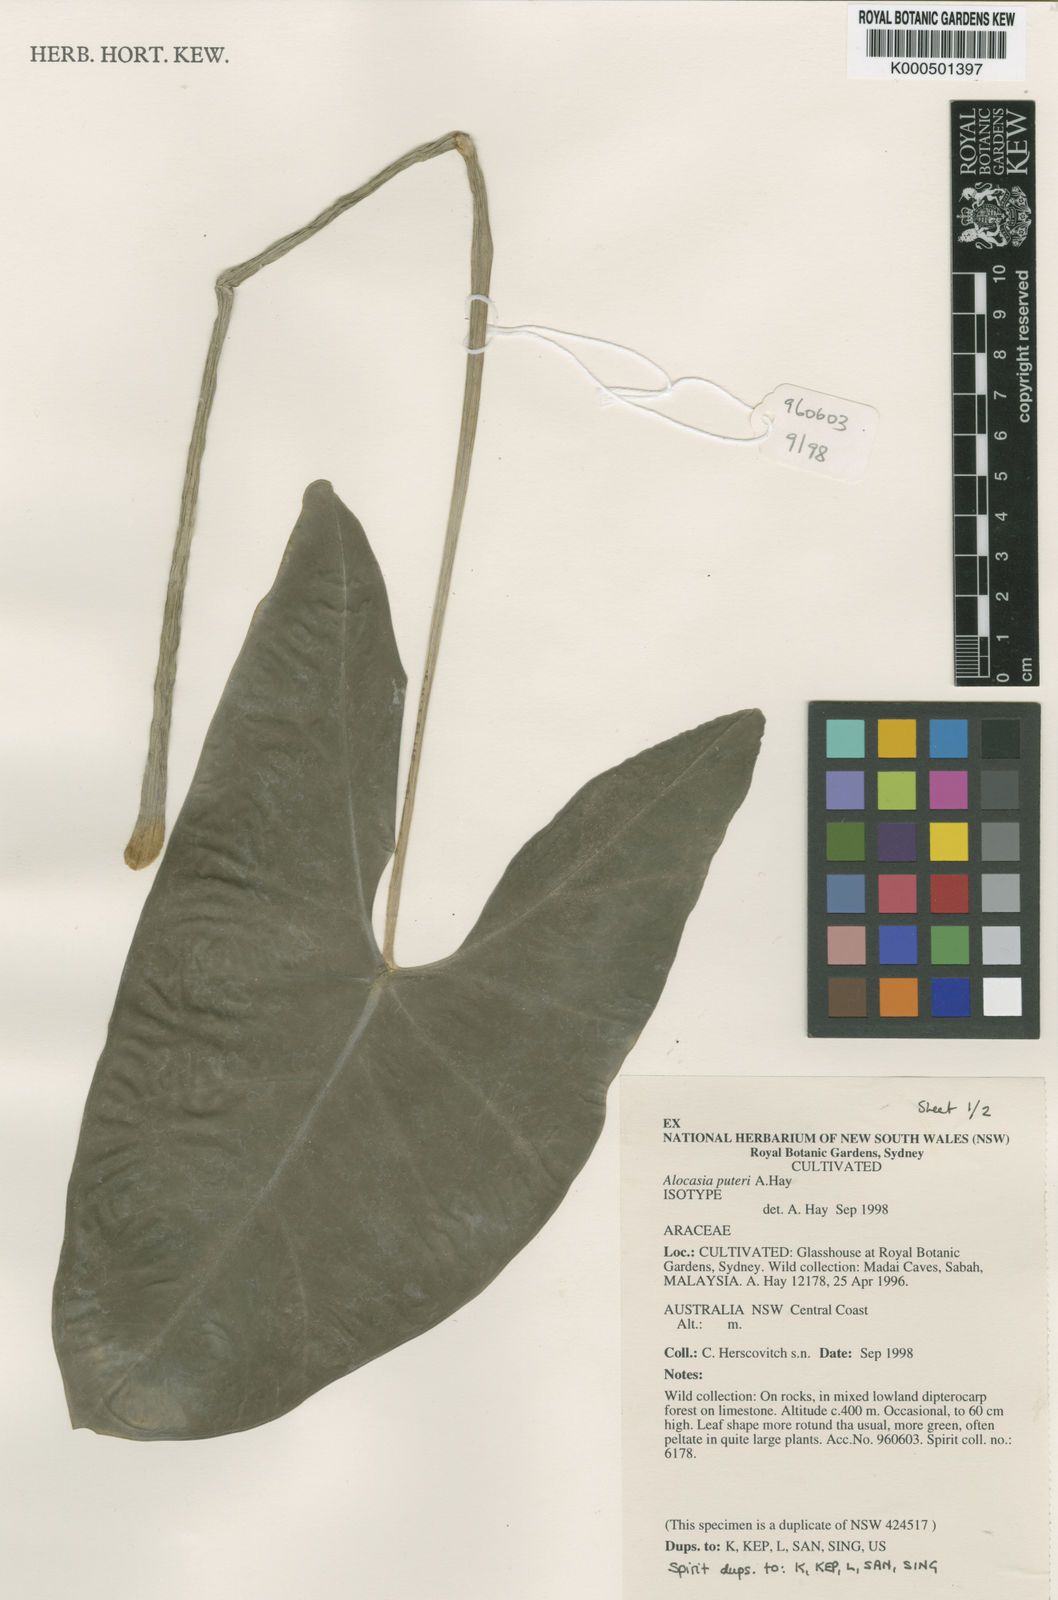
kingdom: Plantae
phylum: Tracheophyta
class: Liliopsida
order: Alismatales
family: Araceae
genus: Alocasia
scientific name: Alocasia puteri
